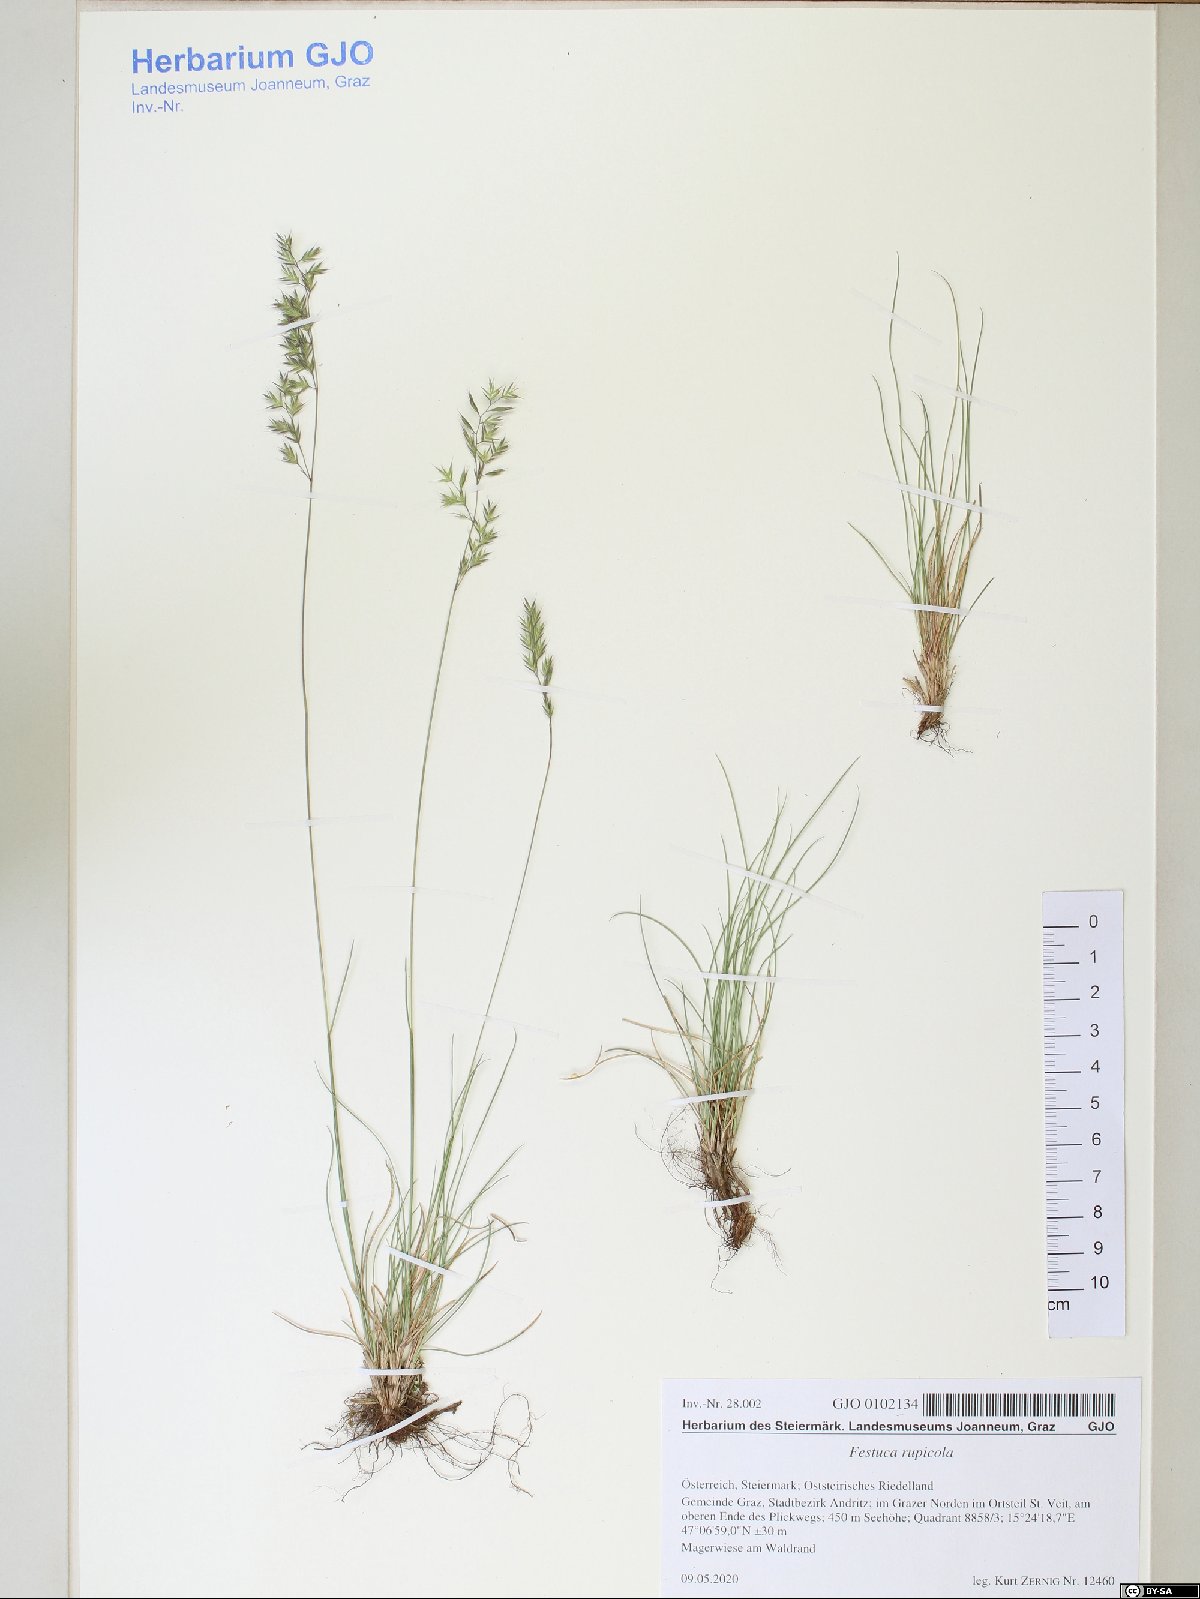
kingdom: Plantae
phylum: Tracheophyta
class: Liliopsida
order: Poales
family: Poaceae
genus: Festuca
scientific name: Festuca rupicola
